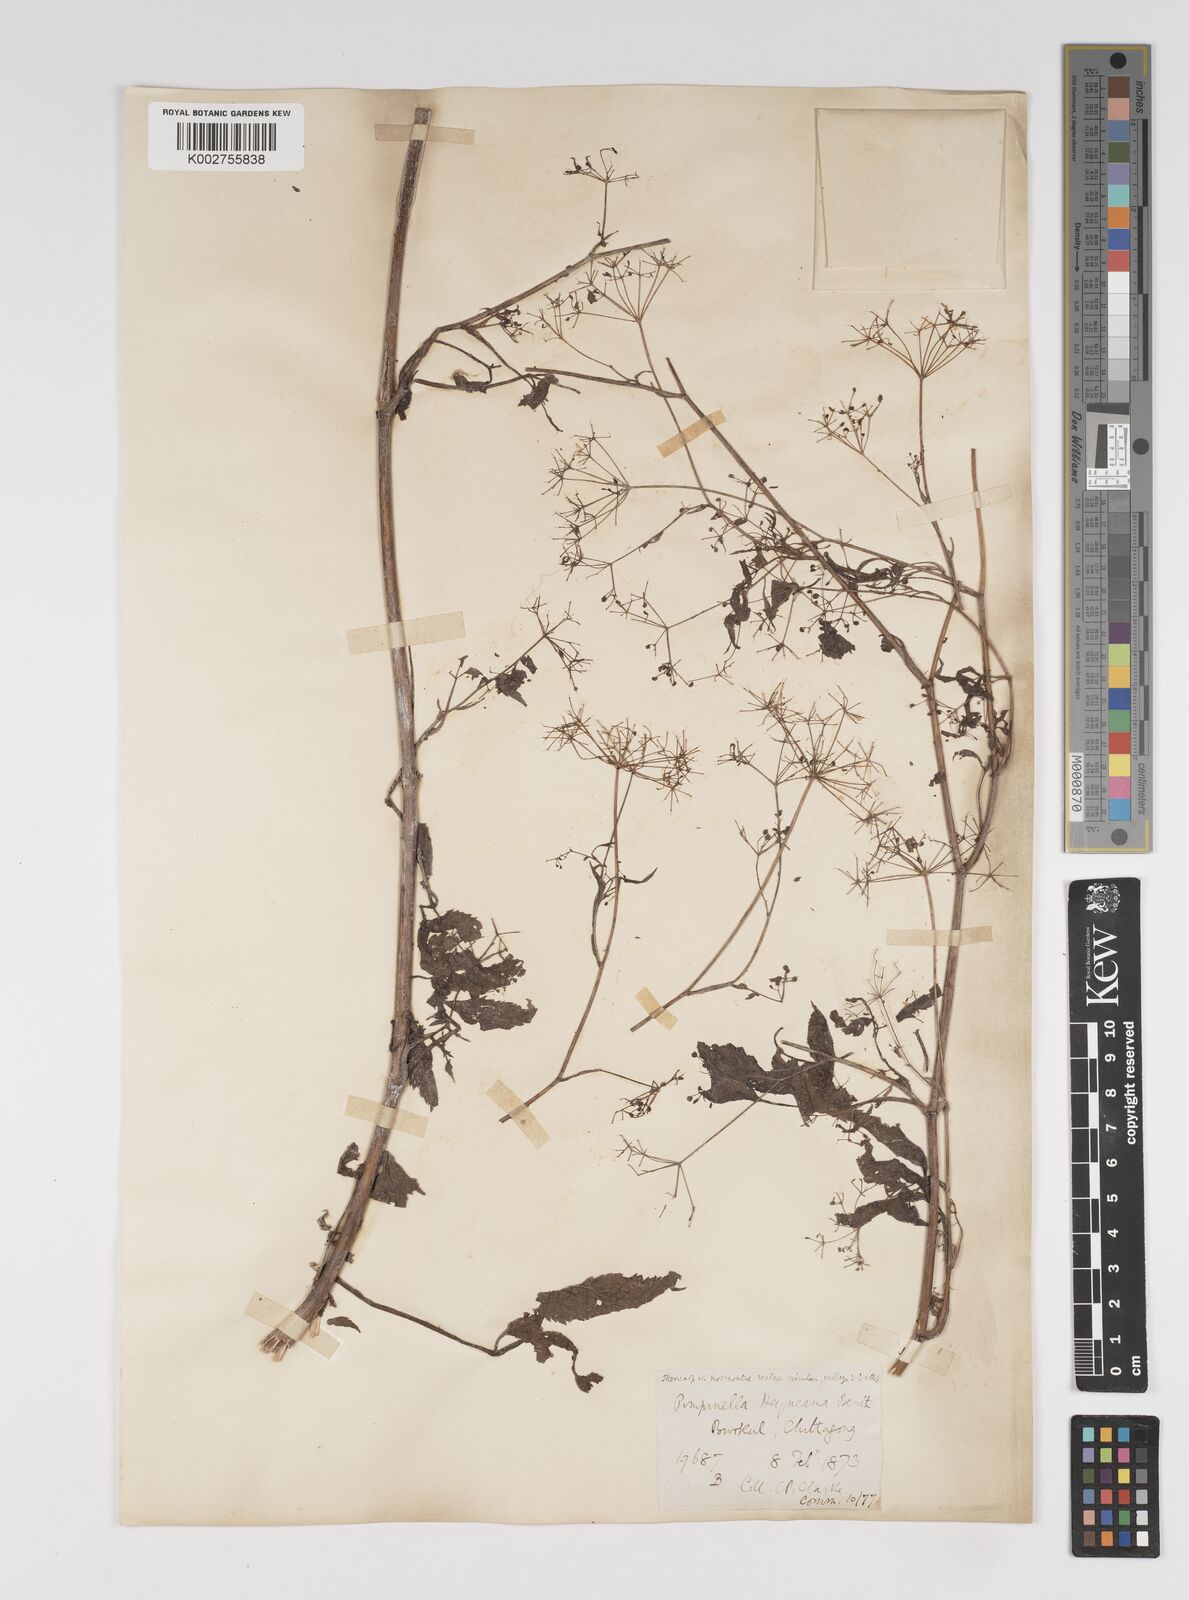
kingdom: Plantae
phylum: Tracheophyta
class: Magnoliopsida
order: Apiales
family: Apiaceae
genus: Pimpinella
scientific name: Pimpinella heyneana
